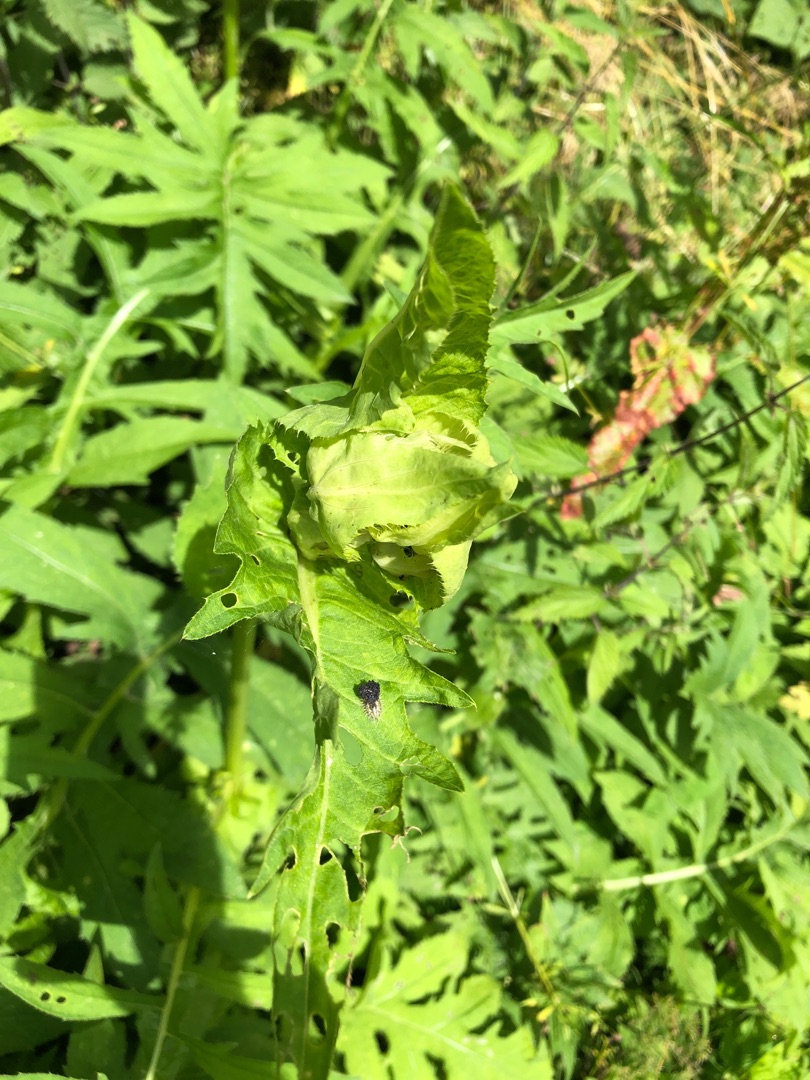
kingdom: Plantae
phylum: Tracheophyta
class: Magnoliopsida
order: Asterales
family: Asteraceae
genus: Cirsium
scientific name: Cirsium oleraceum
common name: Kål-tidsel
